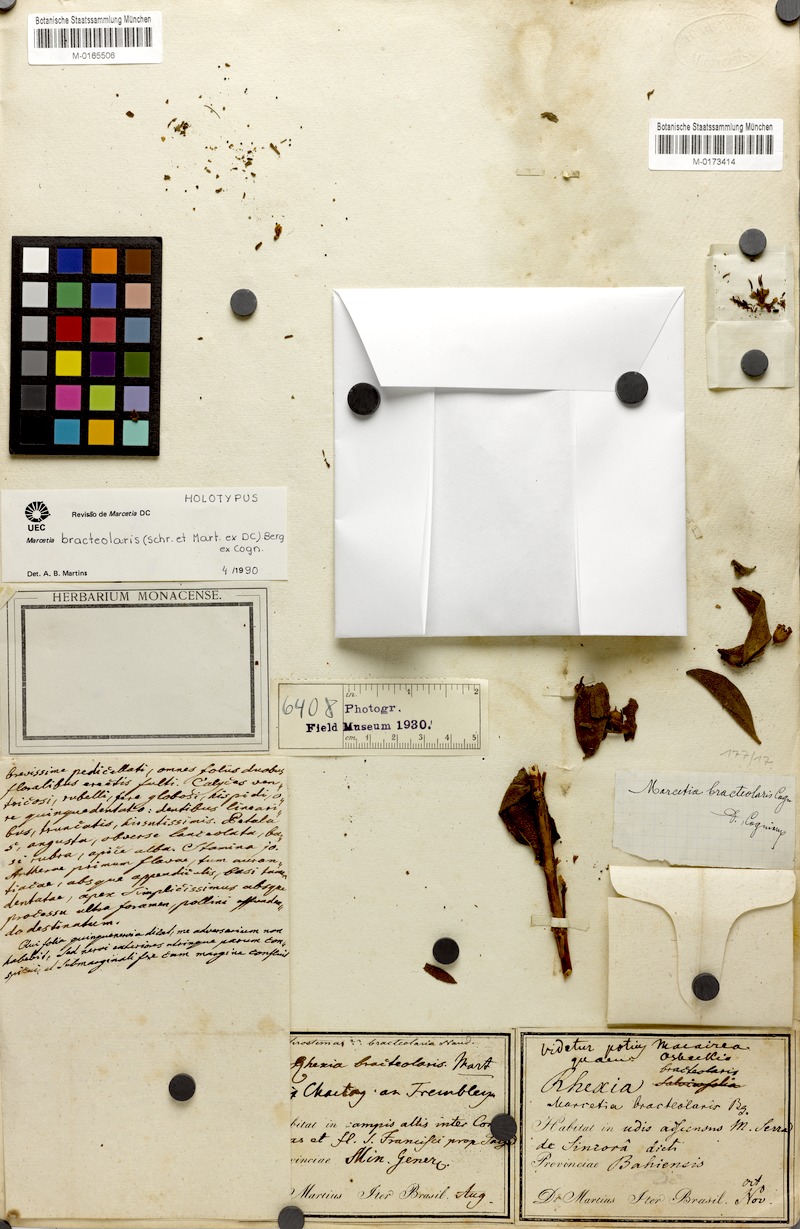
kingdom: Plantae
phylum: Tracheophyta
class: Magnoliopsida
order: Myrtales
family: Melastomataceae
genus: Marcetia
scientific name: Marcetia bracteolaris
